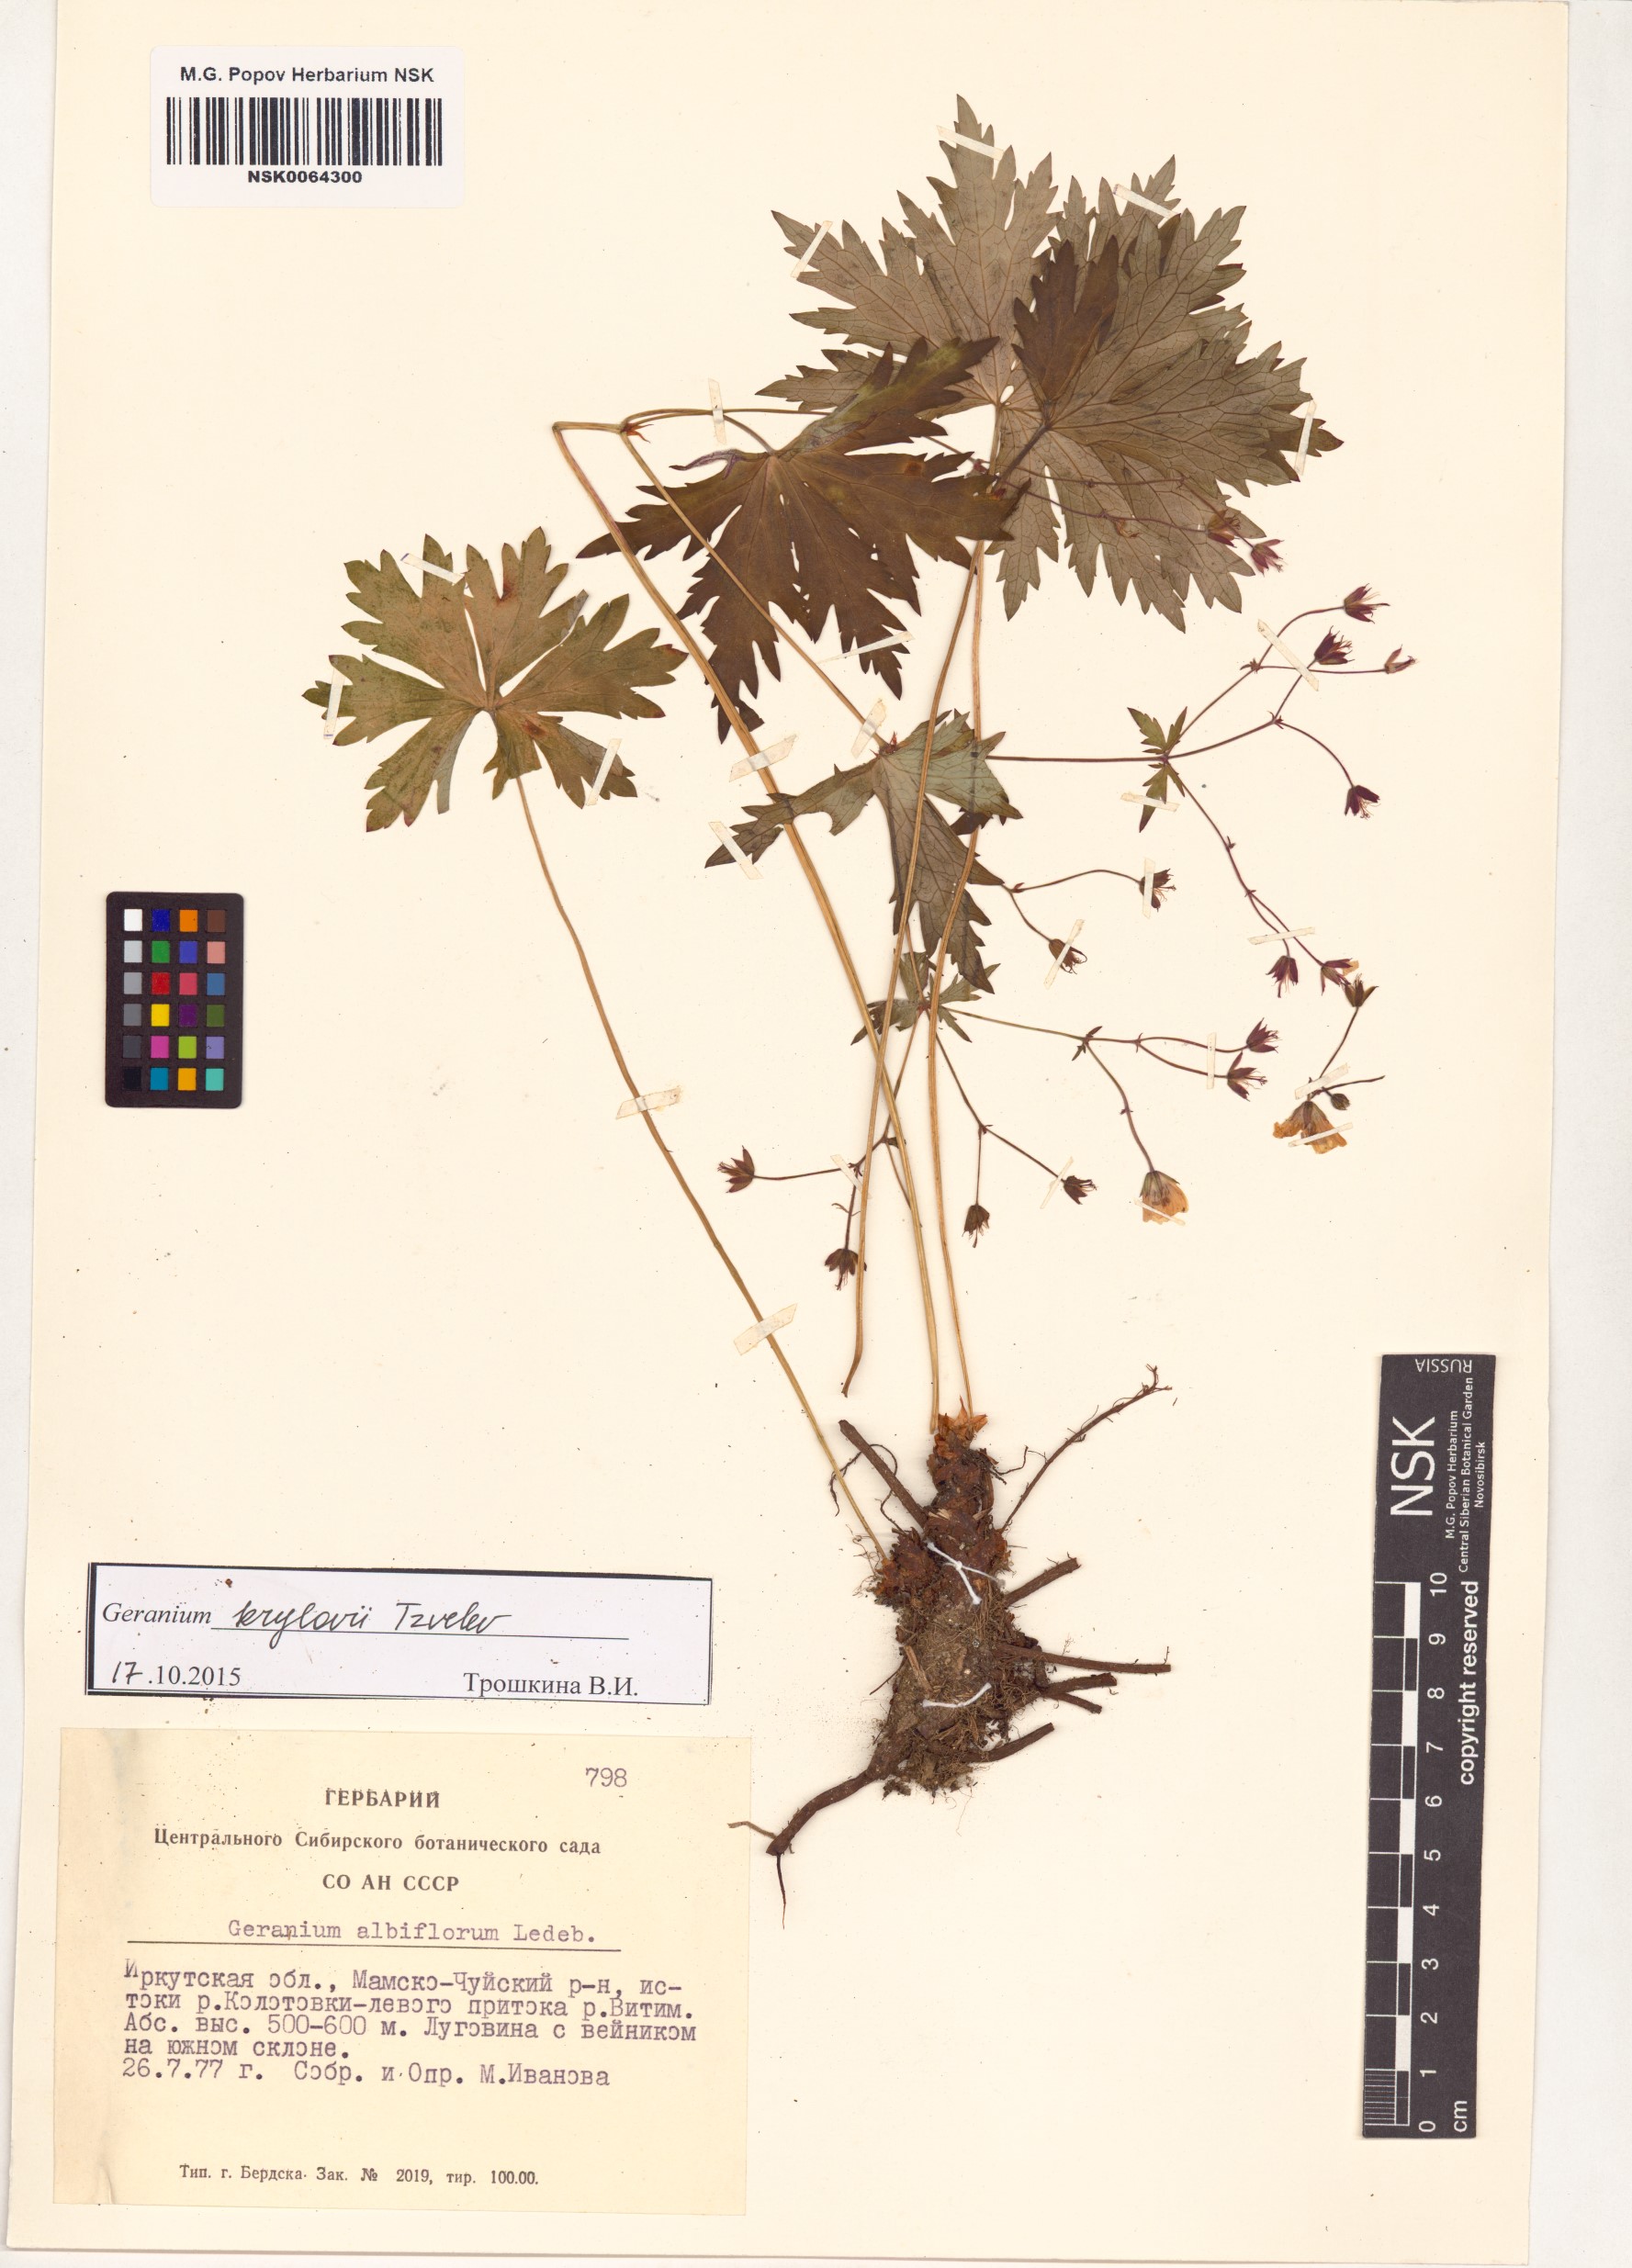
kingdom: Plantae
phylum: Tracheophyta
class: Magnoliopsida
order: Geraniales
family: Geraniaceae
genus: Geranium
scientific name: Geranium sylvaticum
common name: Wood crane's-bill
